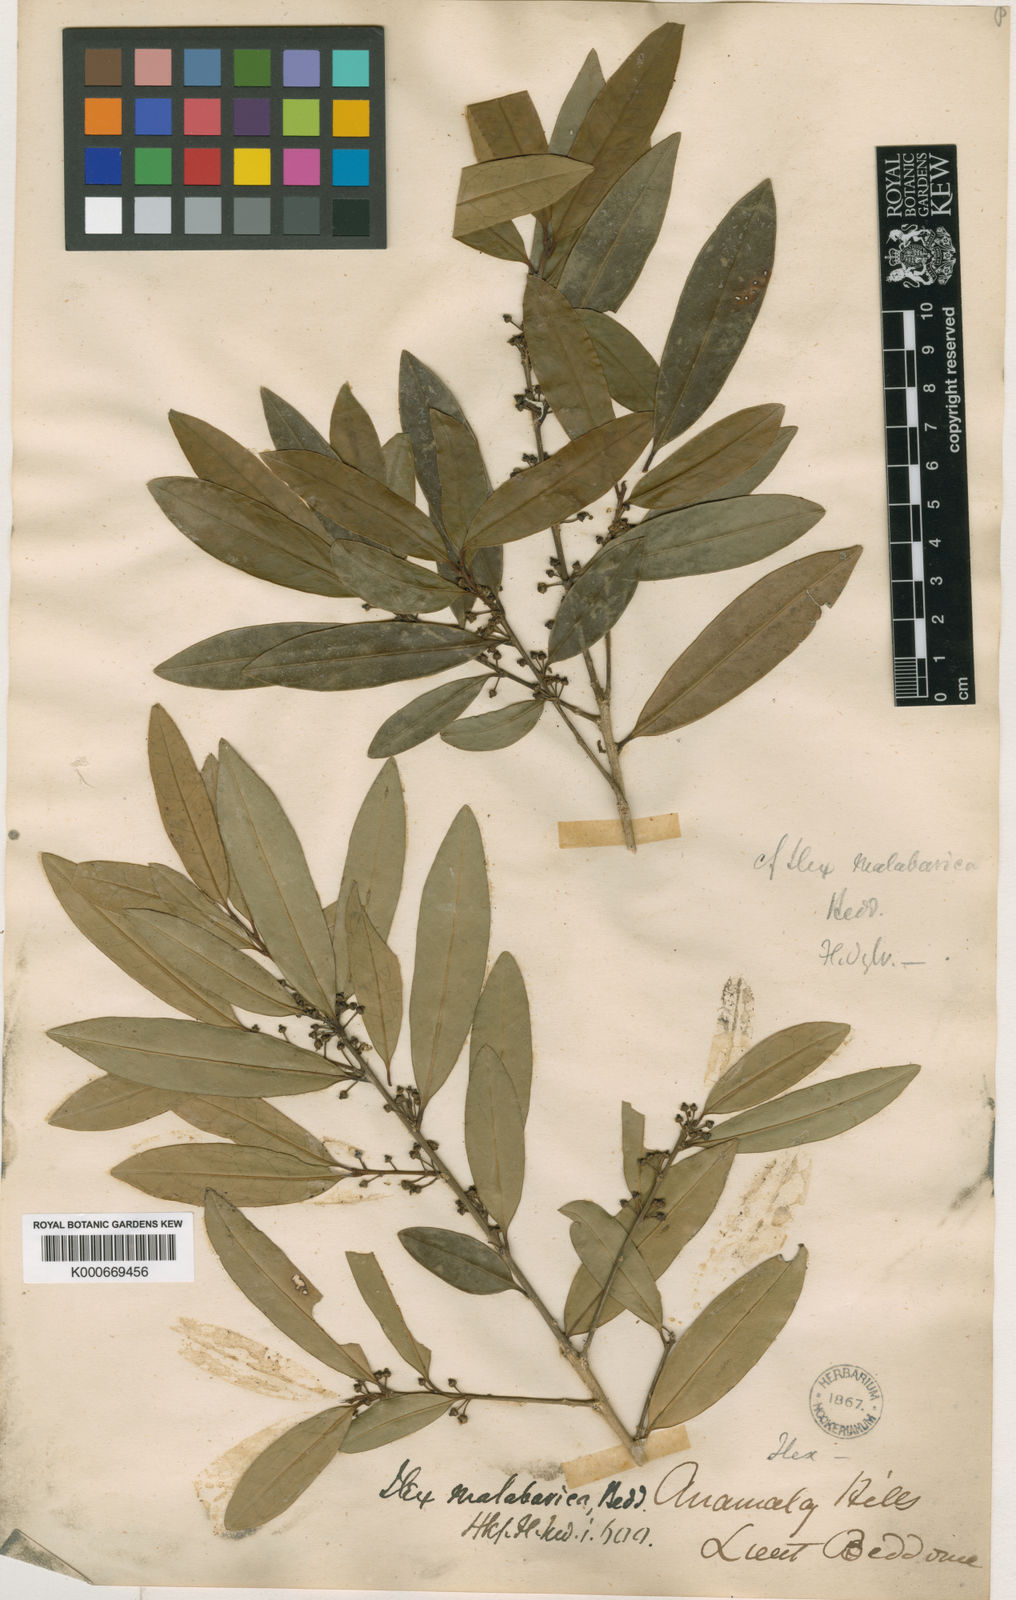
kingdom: Plantae
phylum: Tracheophyta
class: Magnoliopsida
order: Aquifoliales
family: Aquifoliaceae
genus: Ilex
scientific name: Ilex malabarica
